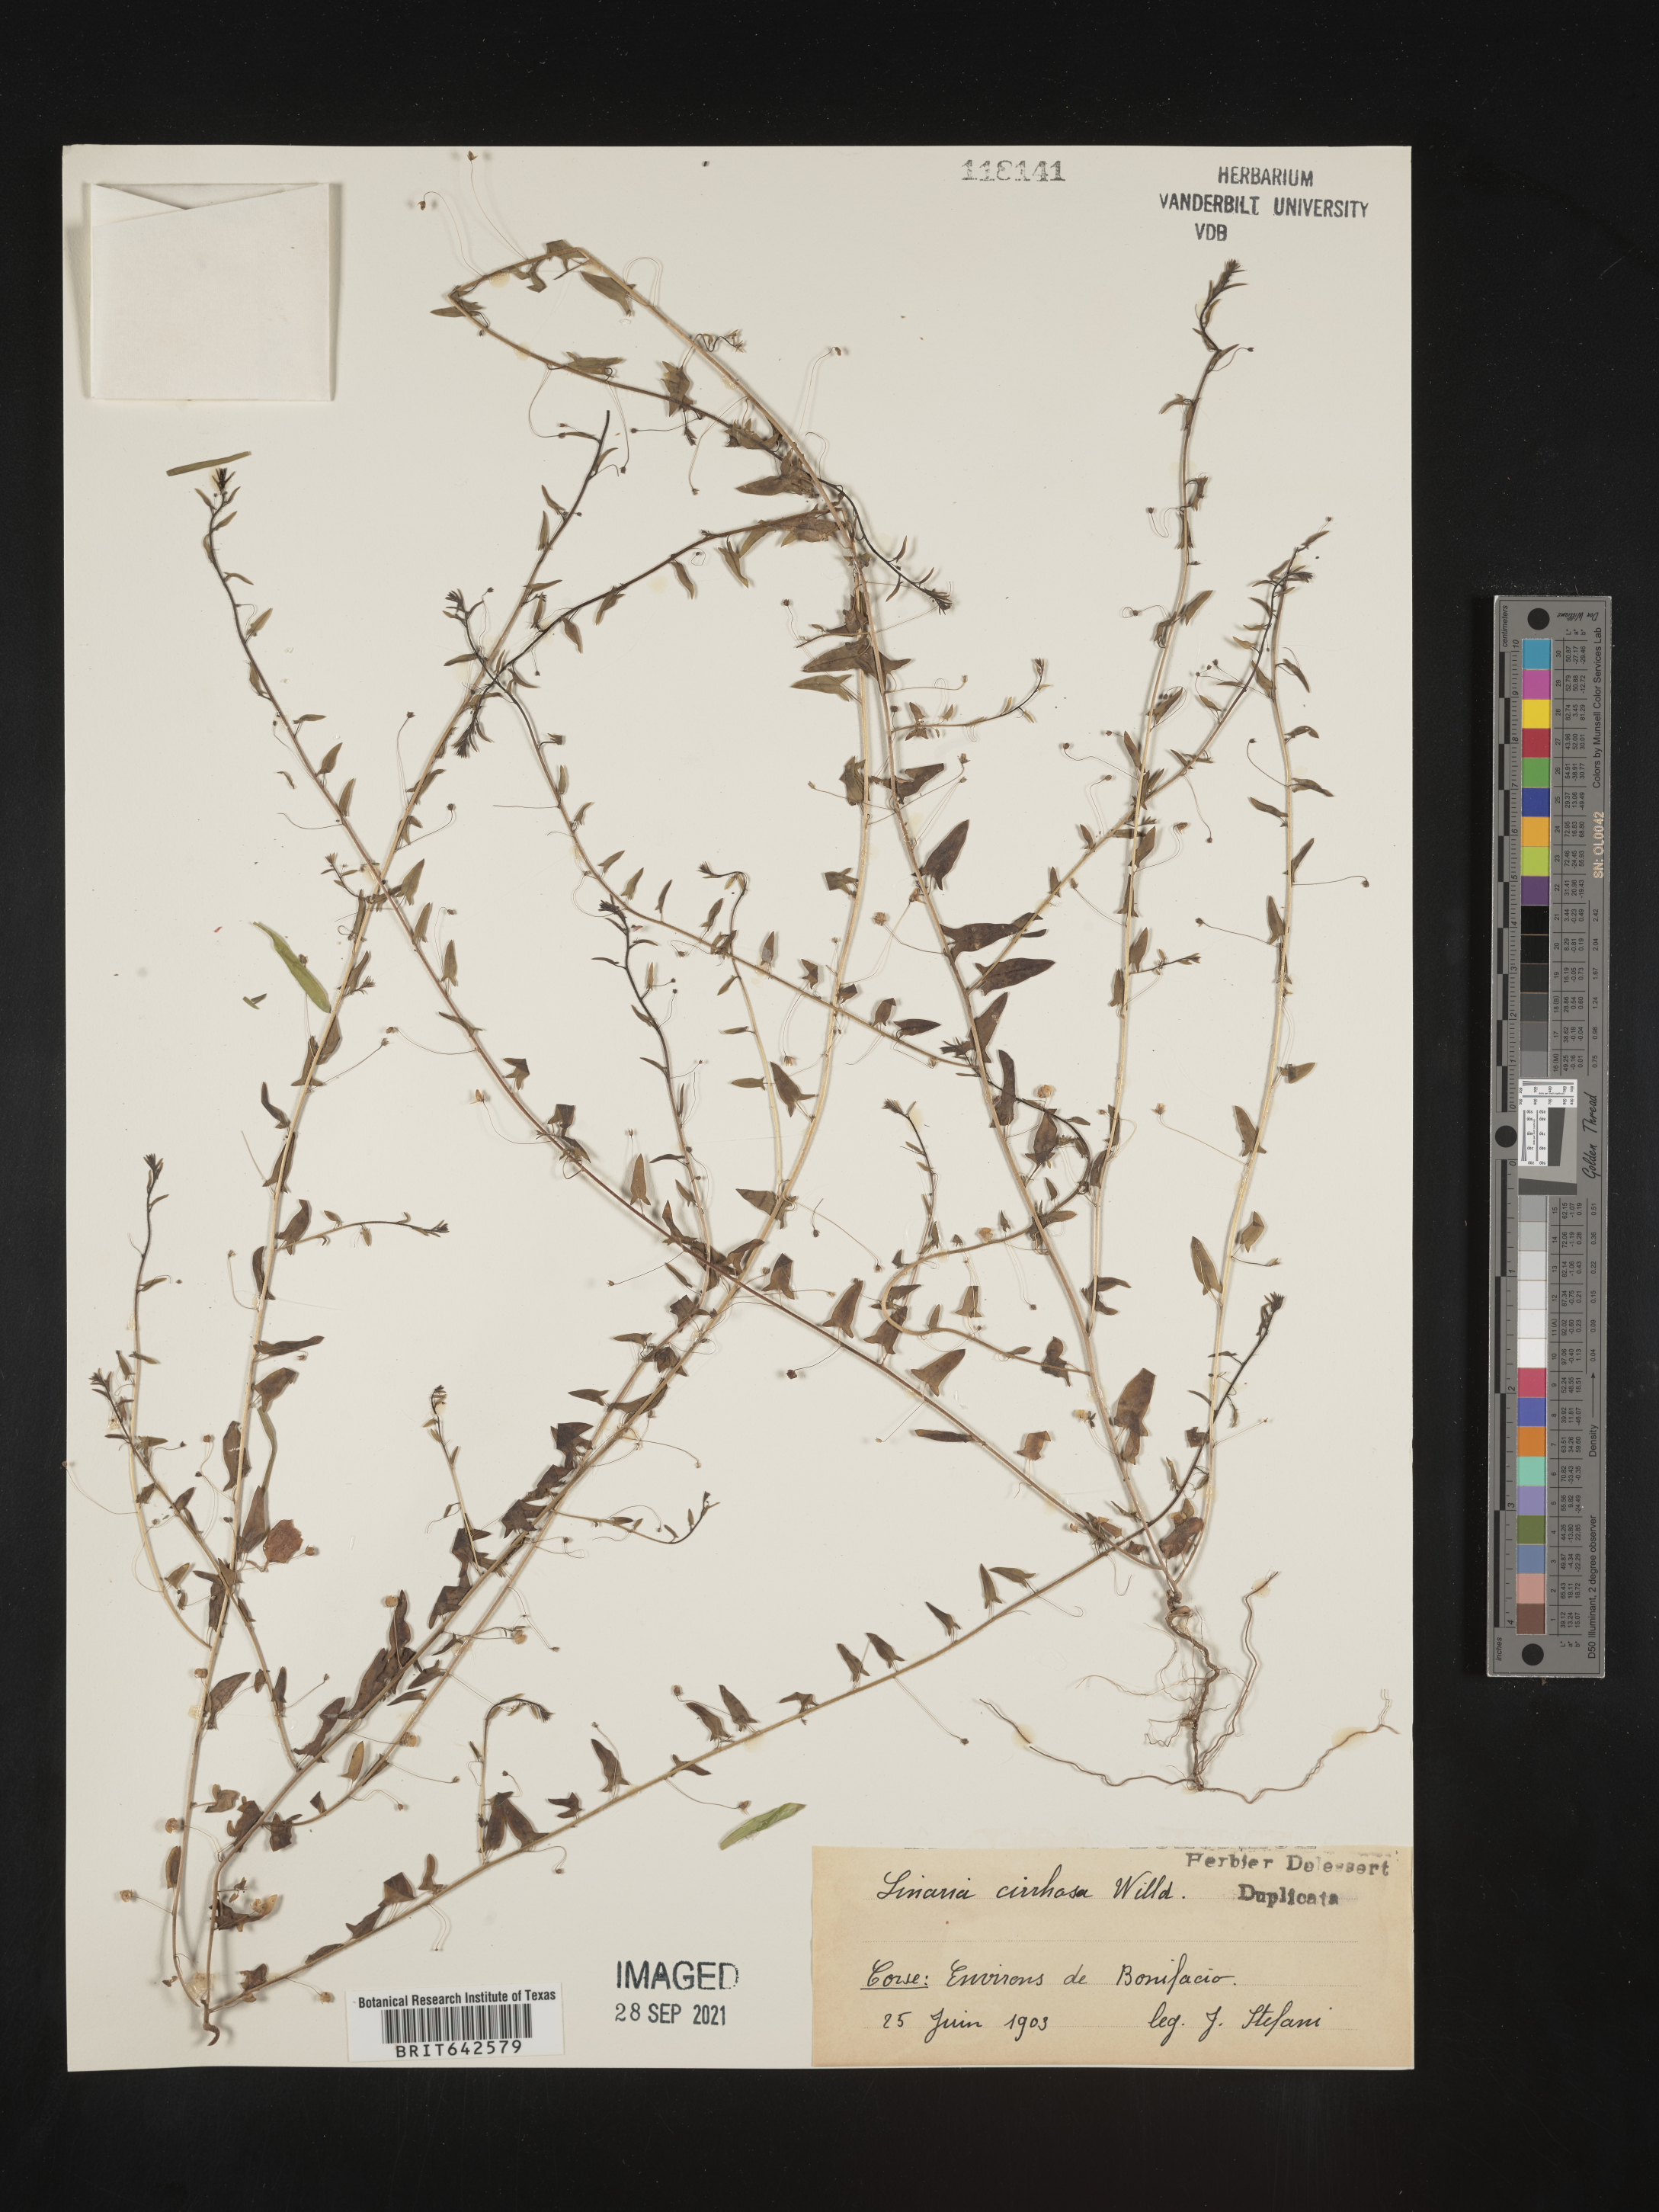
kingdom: Plantae
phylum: Tracheophyta
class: Magnoliopsida
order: Lamiales
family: Plantaginaceae
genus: Linaria
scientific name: Linaria
